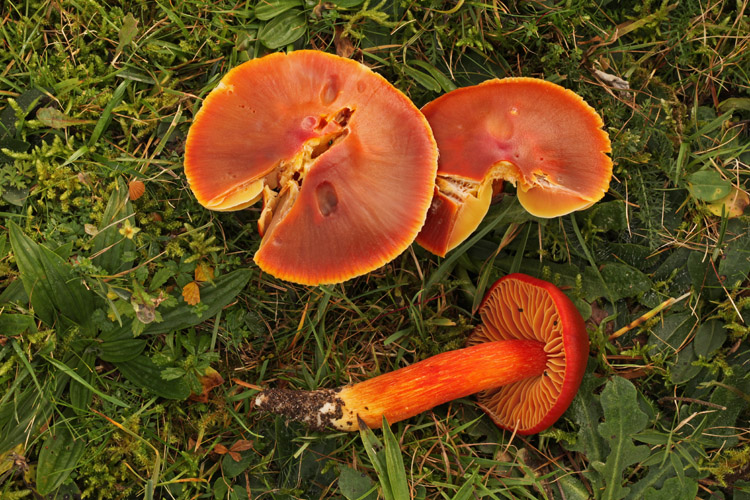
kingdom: Fungi
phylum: Basidiomycota
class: Agaricomycetes
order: Agaricales
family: Hygrophoraceae
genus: Hygrocybe
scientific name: Hygrocybe punicea
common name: skarlagen-vokshat
